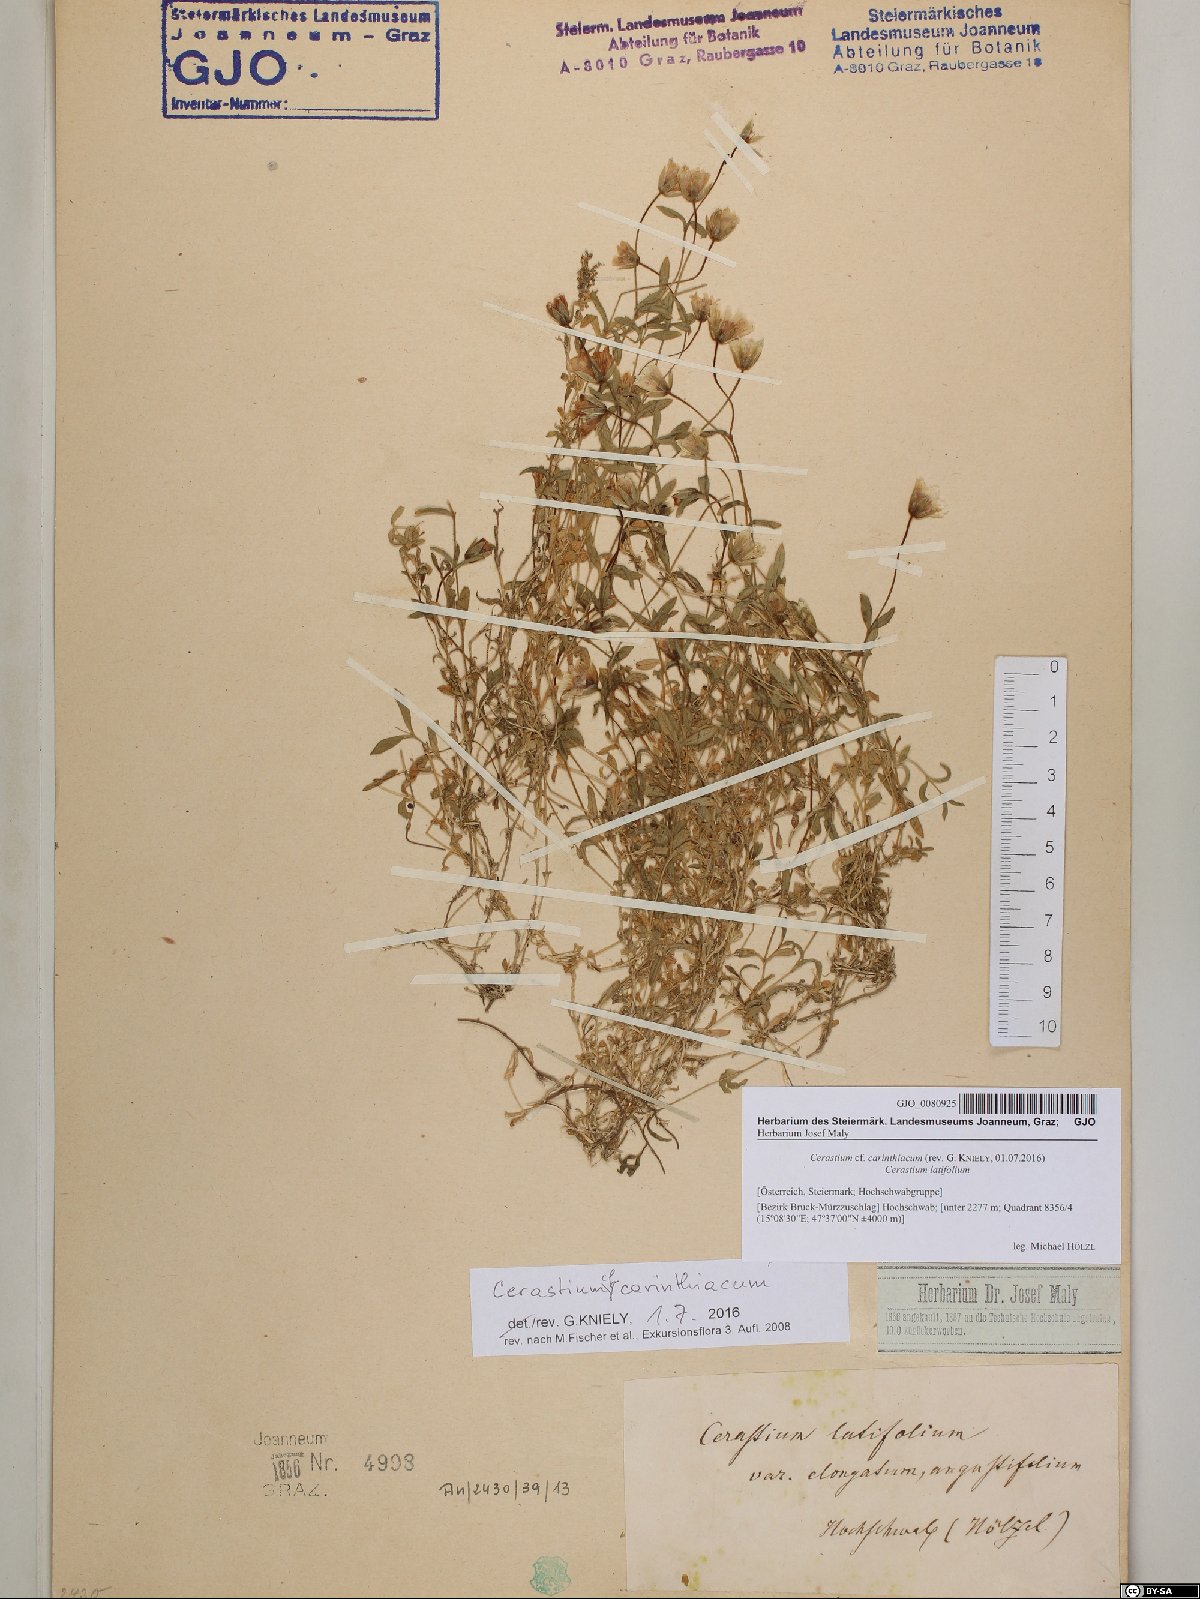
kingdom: Plantae
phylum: Tracheophyta
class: Magnoliopsida
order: Caryophyllales
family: Caryophyllaceae
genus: Cerastium
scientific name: Cerastium carinthiacum
